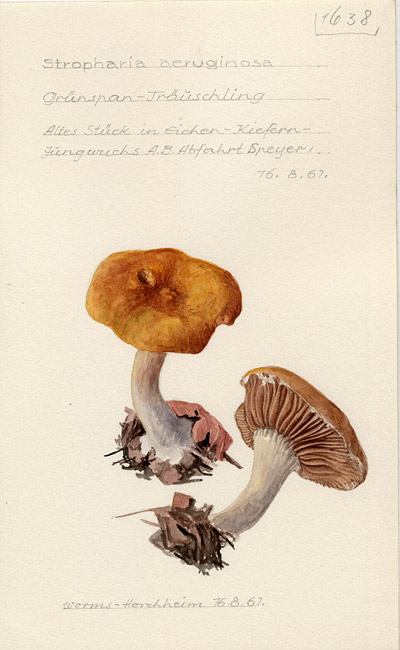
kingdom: Fungi
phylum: Basidiomycota
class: Agaricomycetes
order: Agaricales
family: Strophariaceae
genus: Stropharia
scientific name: Stropharia aeruginosa
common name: Verdigris roundhead
